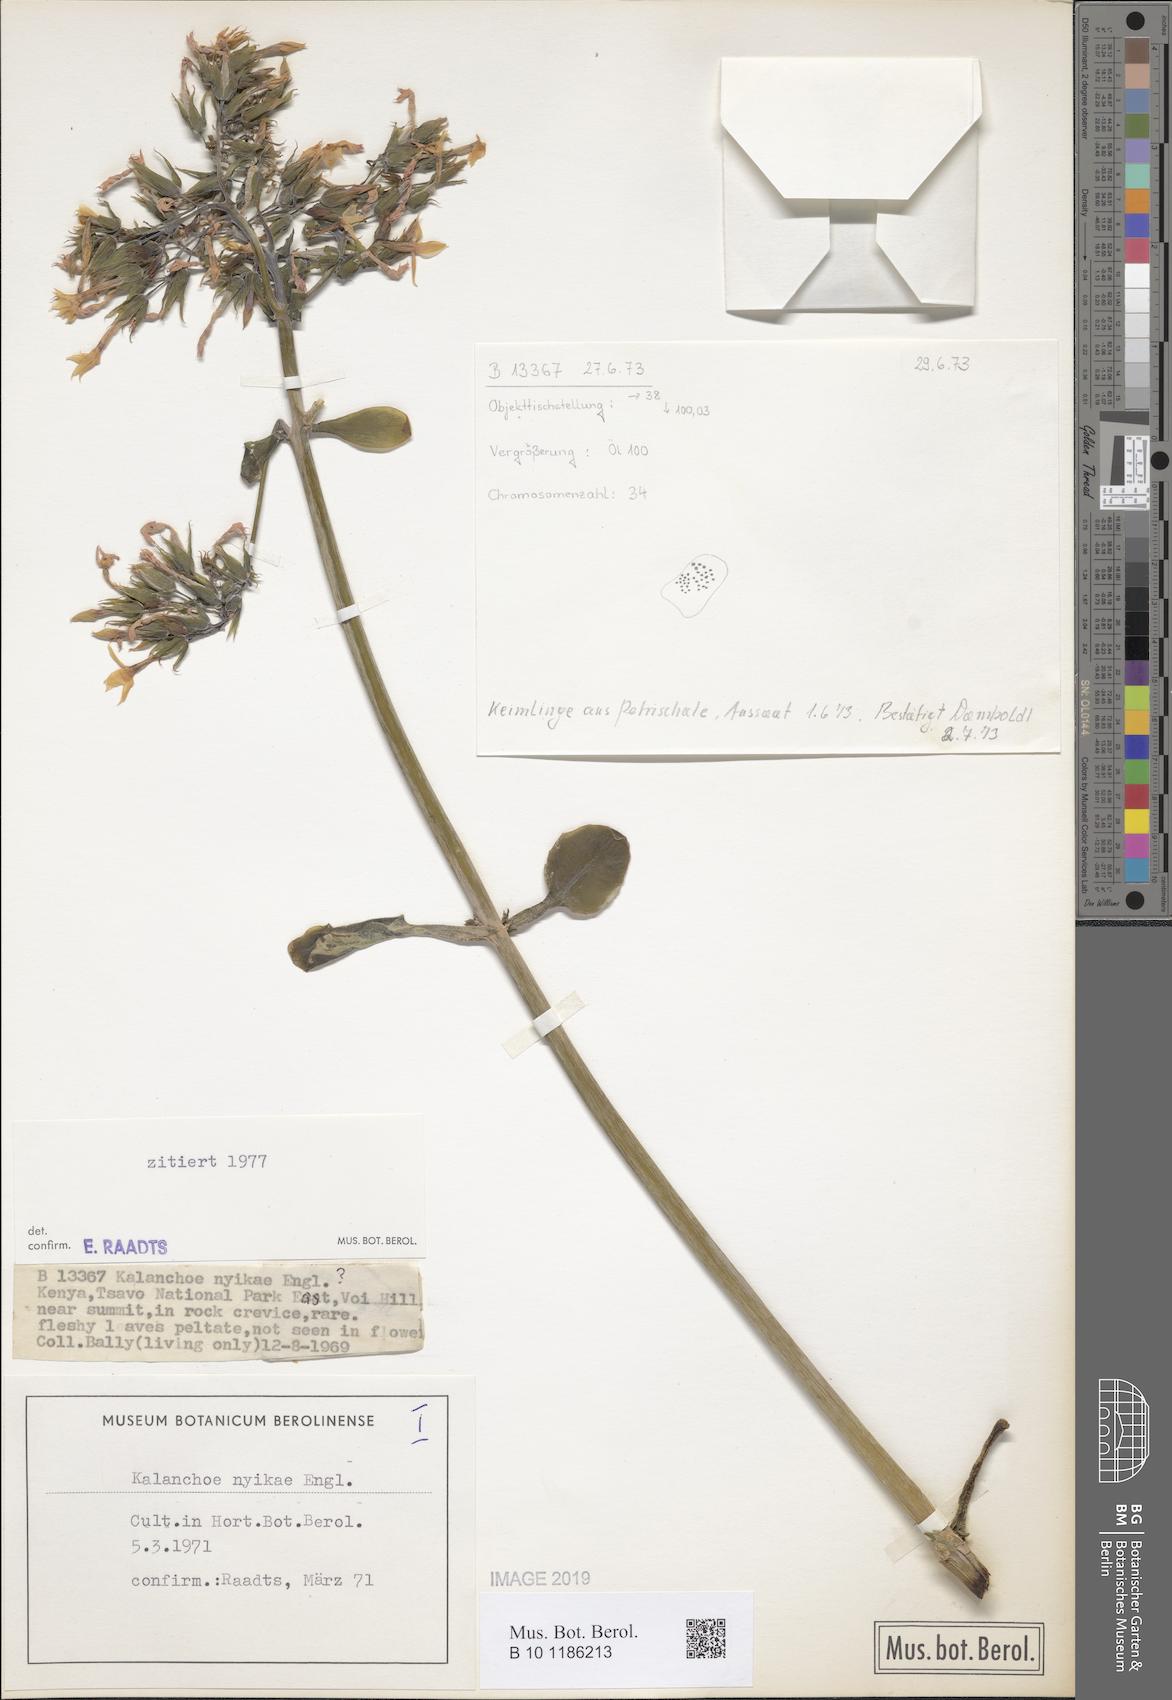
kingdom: Plantae
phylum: Tracheophyta
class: Magnoliopsida
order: Saxifragales
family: Crassulaceae
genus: Kalanchoe
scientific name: Kalanchoe nyikae
